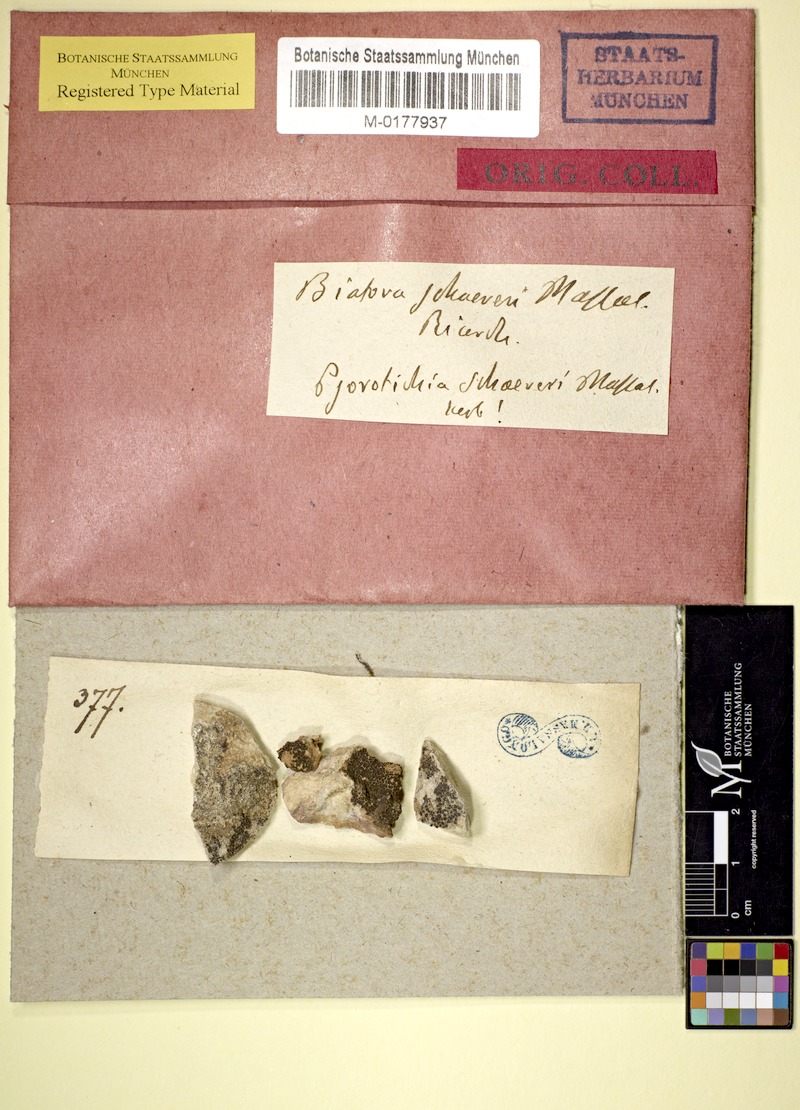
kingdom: Fungi
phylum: Ascomycota
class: Lichinomycetes
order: Lichinales
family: Lichinaceae
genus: Psorotichia
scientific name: Psorotichia schaereri
